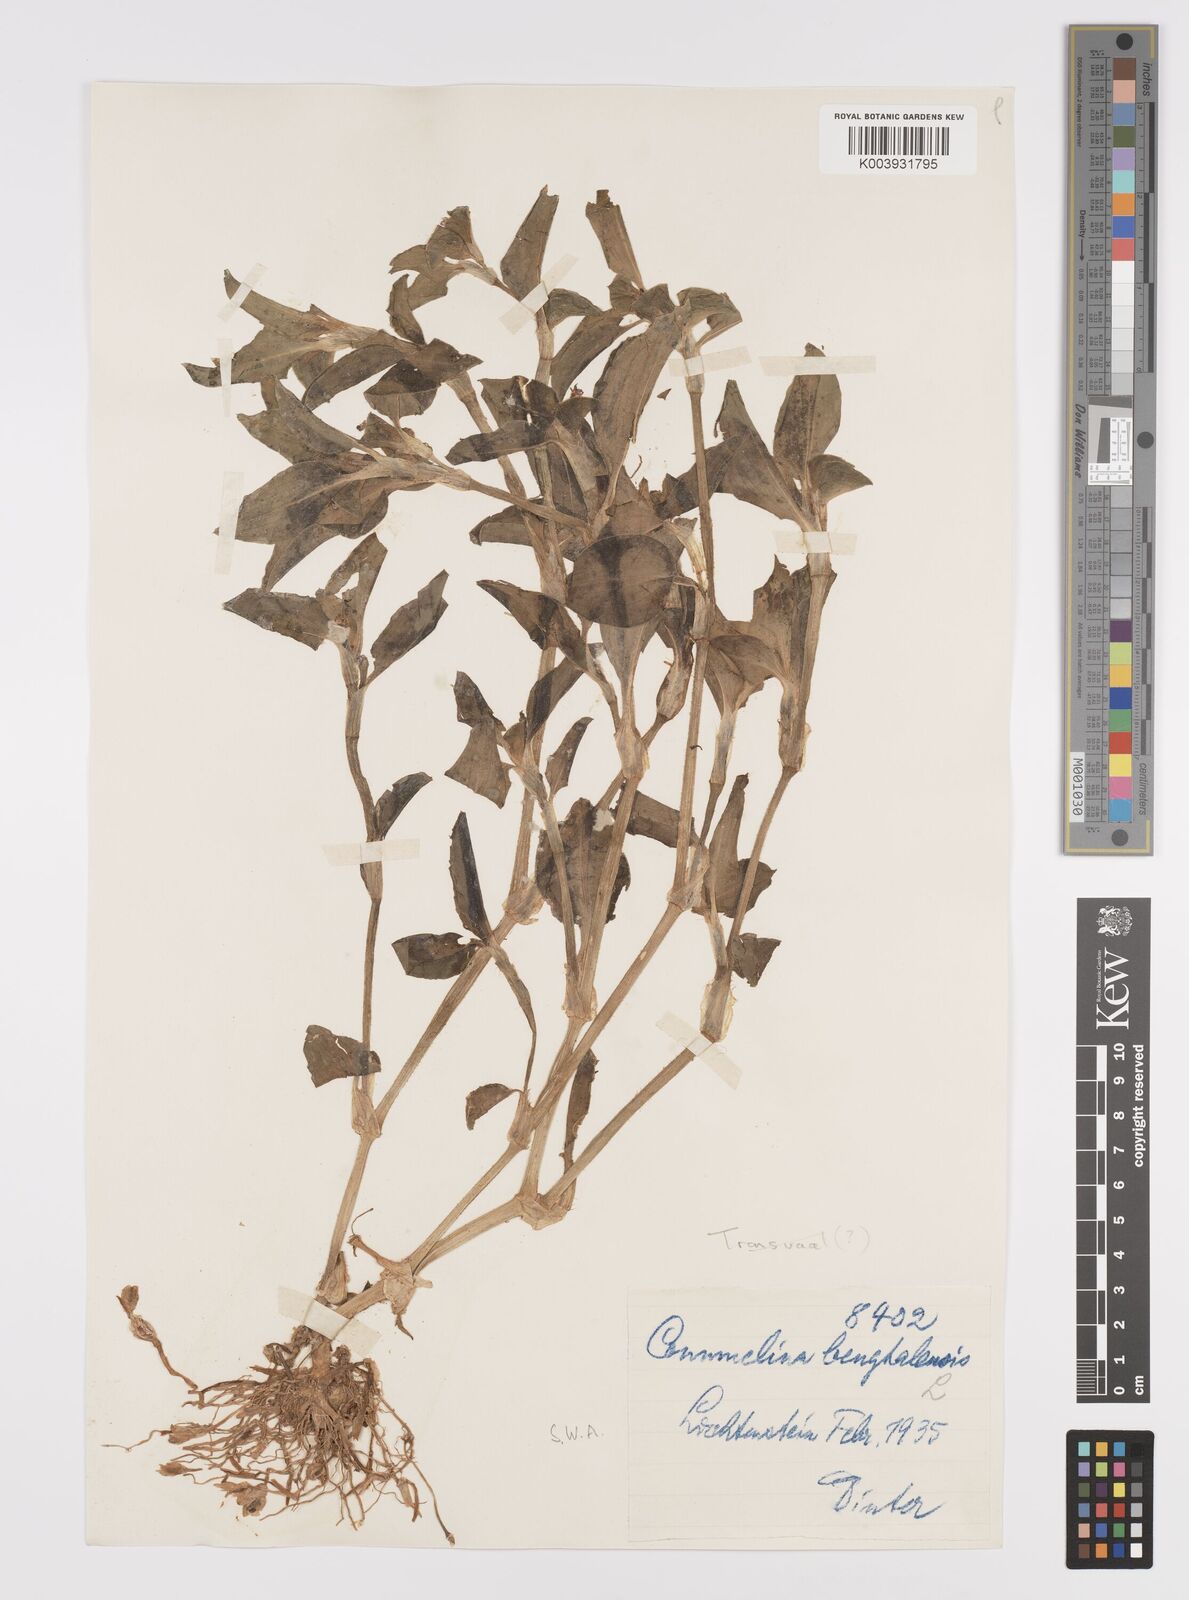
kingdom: Plantae
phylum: Tracheophyta
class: Liliopsida
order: Commelinales
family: Commelinaceae
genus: Commelina
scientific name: Commelina benghalensis
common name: Jio
